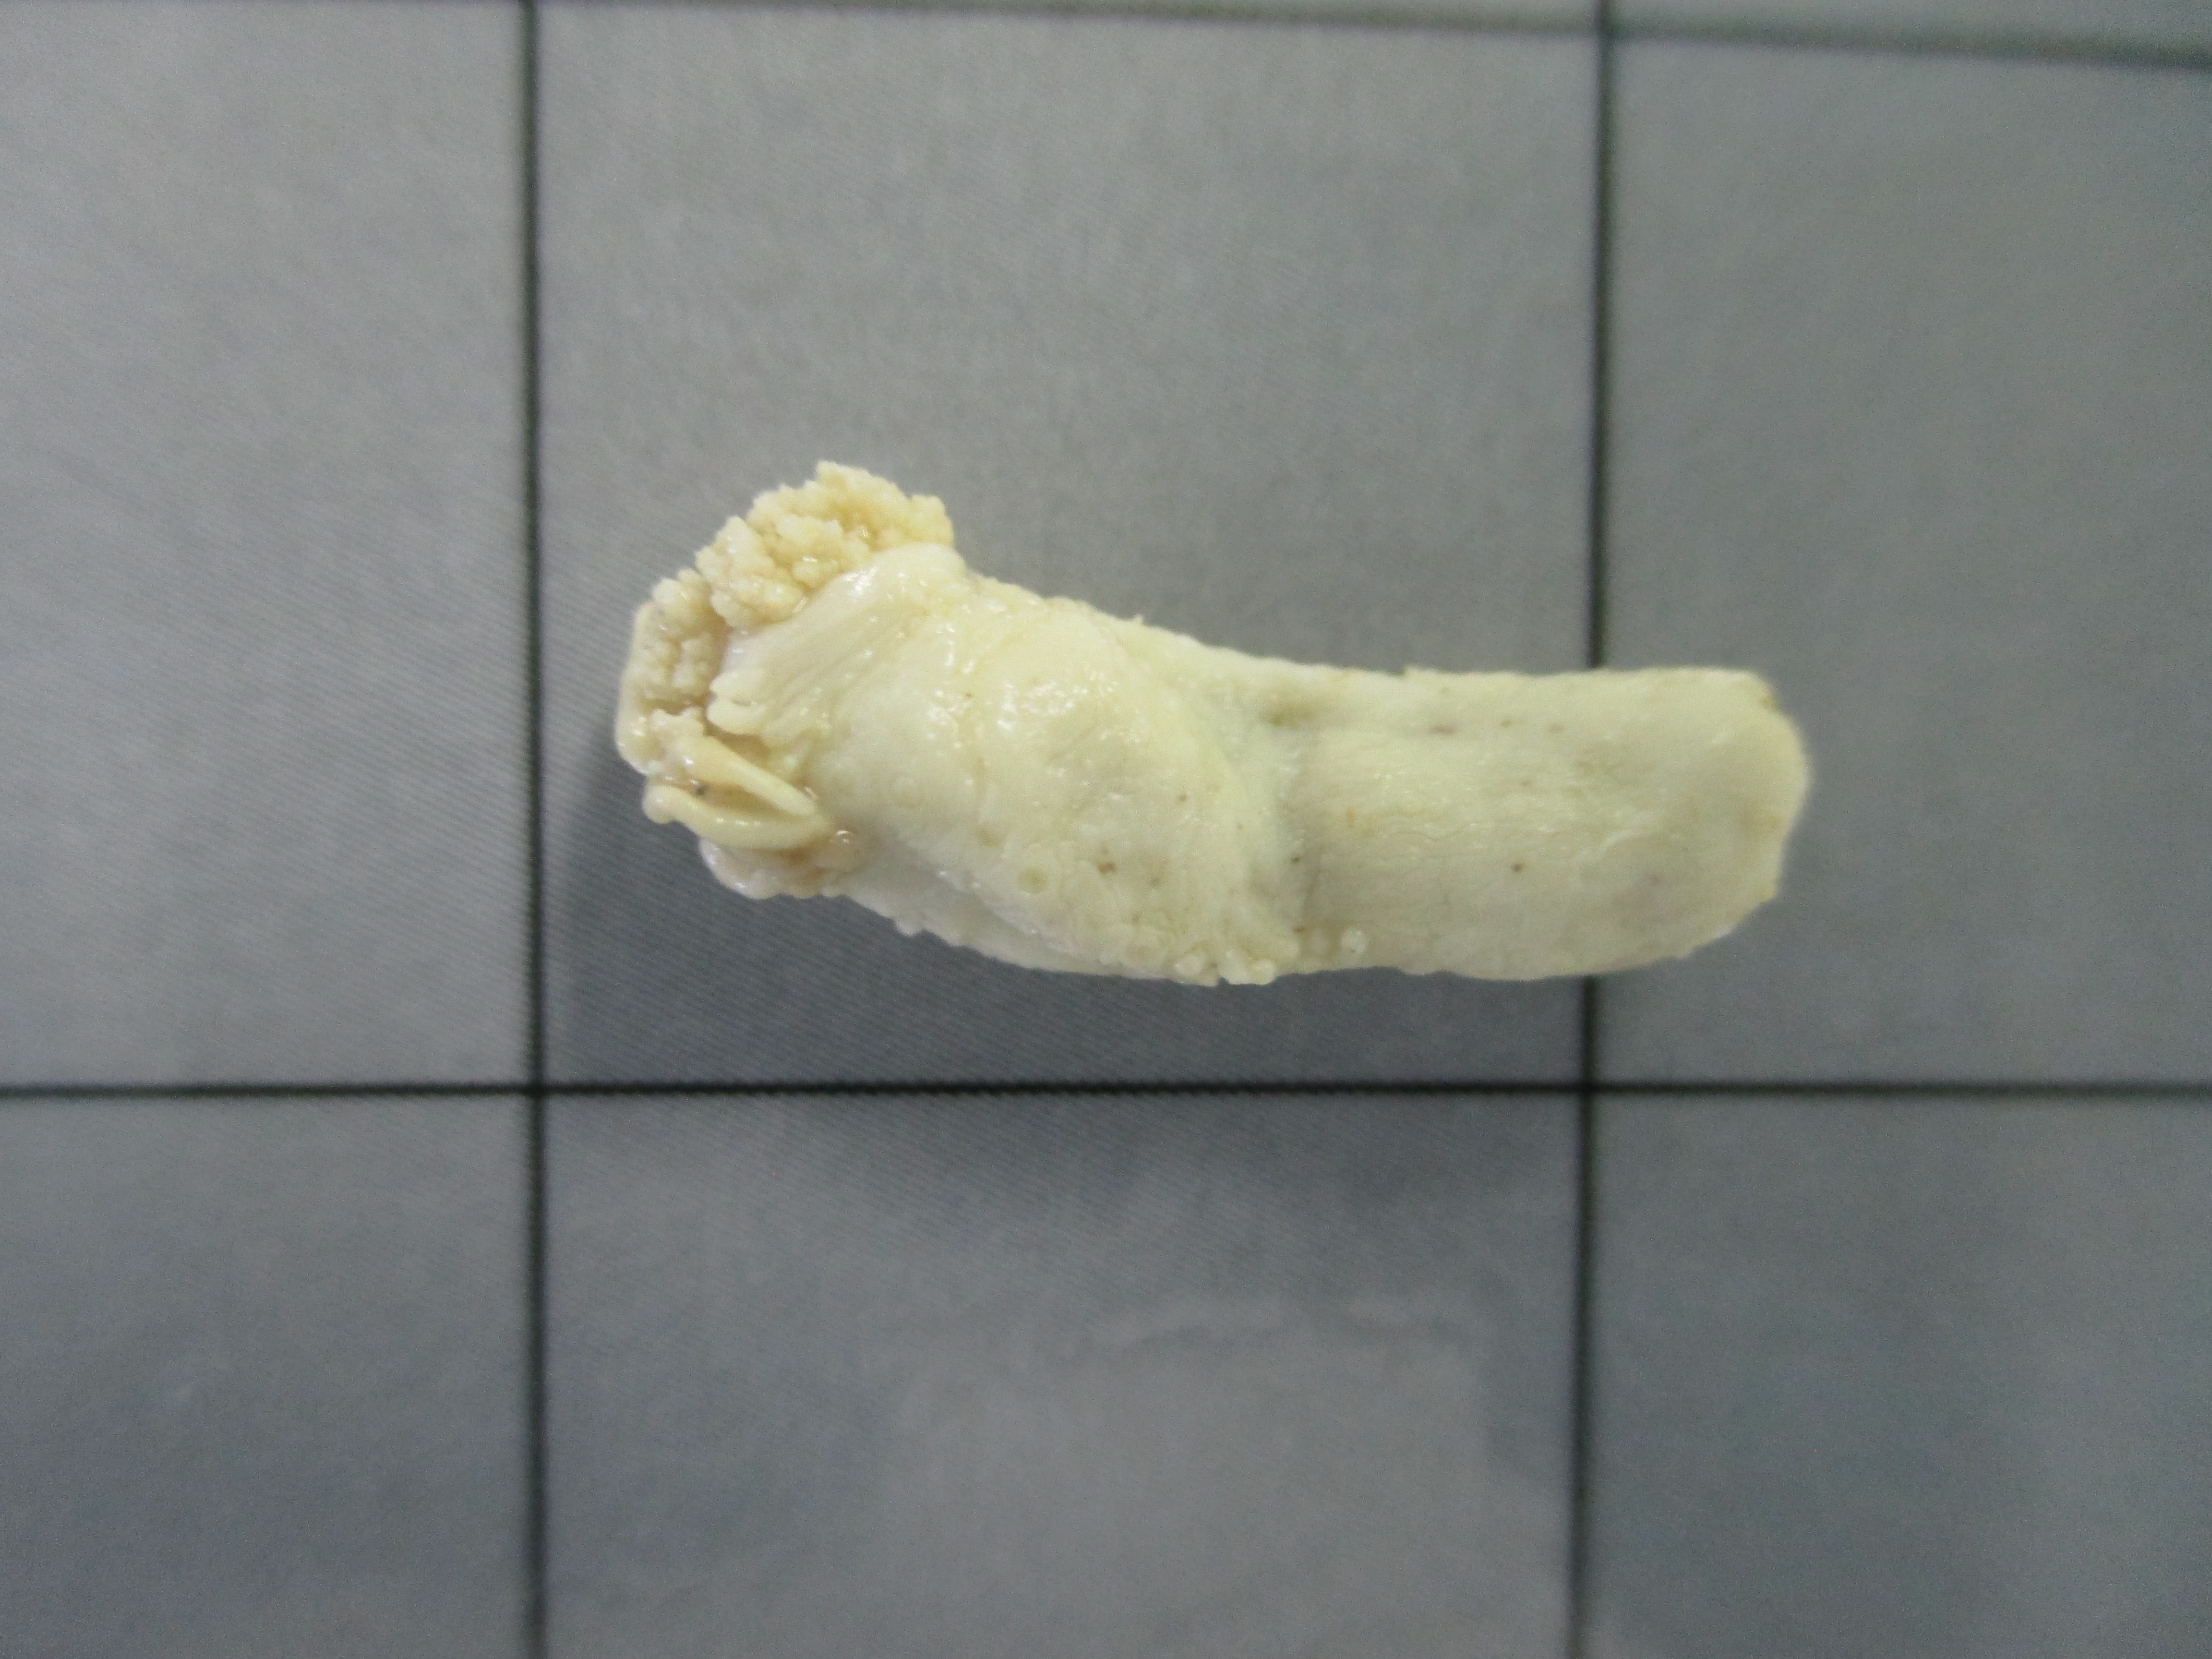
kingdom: Animalia
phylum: Echinodermata
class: Holothuroidea
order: Dendrochirotida
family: Cucumariidae
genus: Hemiocnus
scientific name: Hemiocnus insolens
